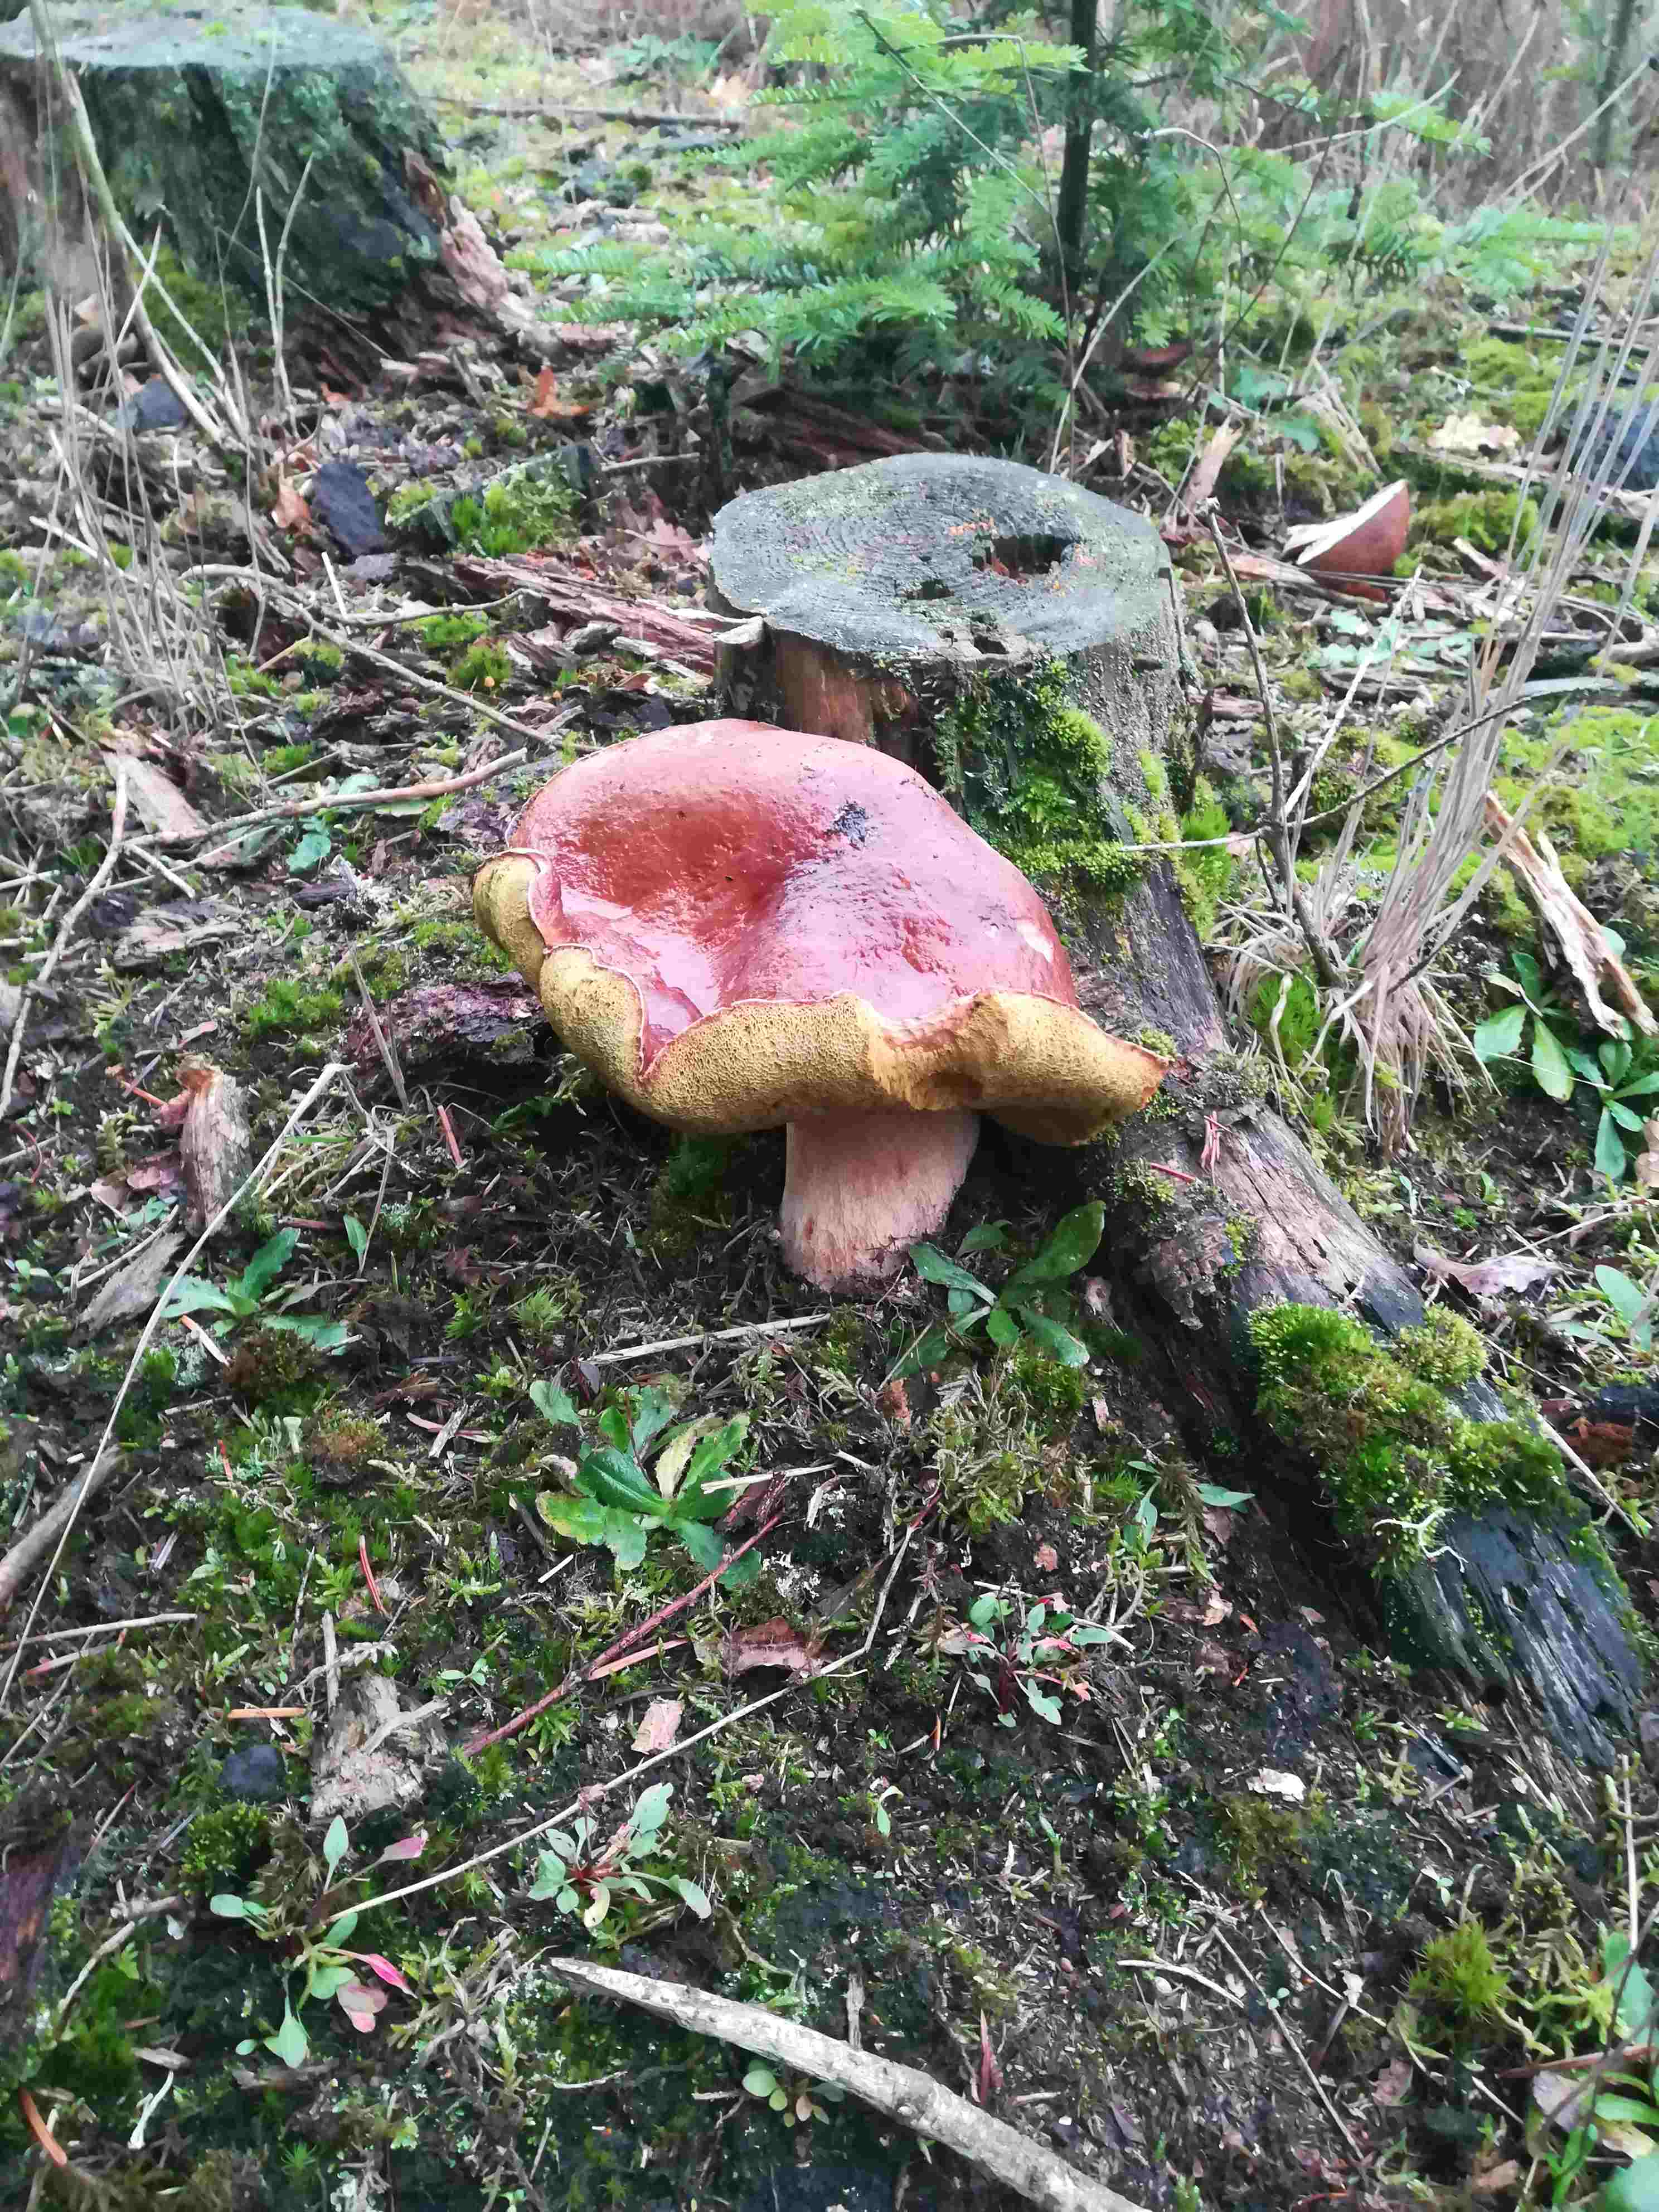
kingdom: Fungi
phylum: Basidiomycota
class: Agaricomycetes
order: Boletales
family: Boletaceae
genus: Imleria
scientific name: Imleria badia
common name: brunstokket rørhat
